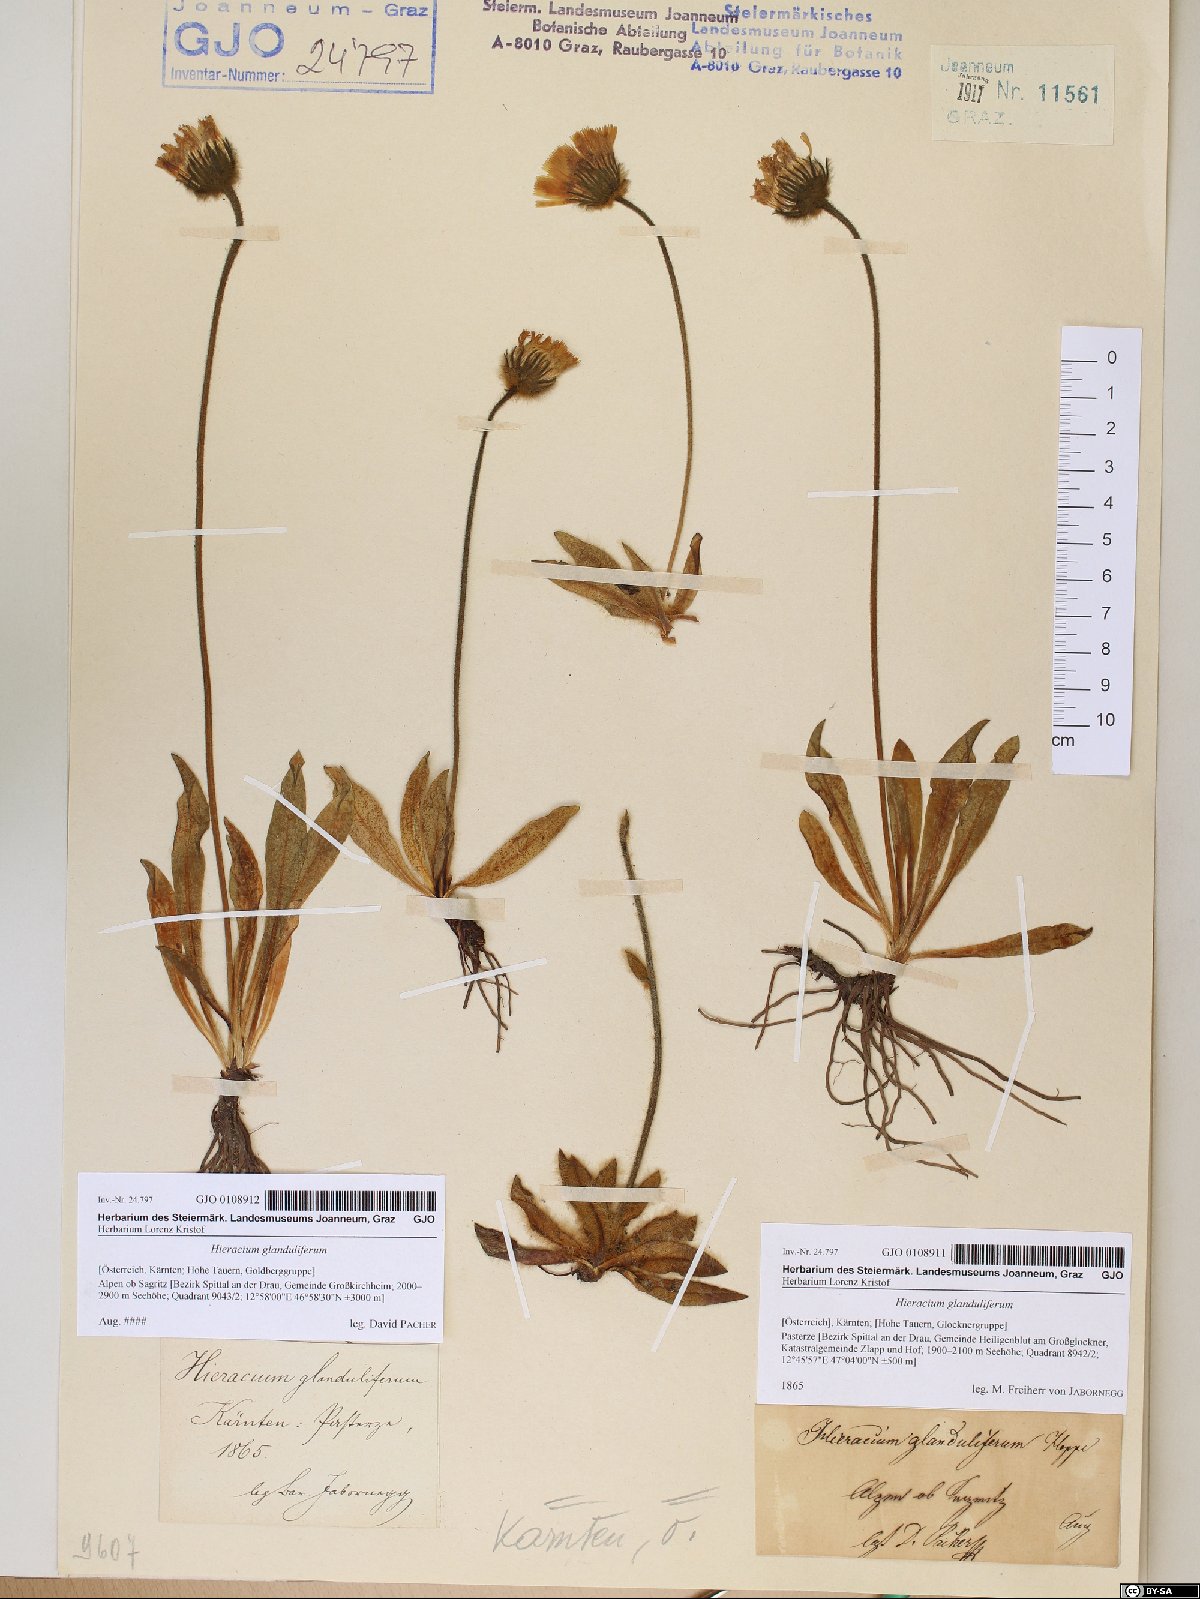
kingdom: Plantae
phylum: Tracheophyta
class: Magnoliopsida
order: Asterales
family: Asteraceae
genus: Hieracium
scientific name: Hieracium piliferum
